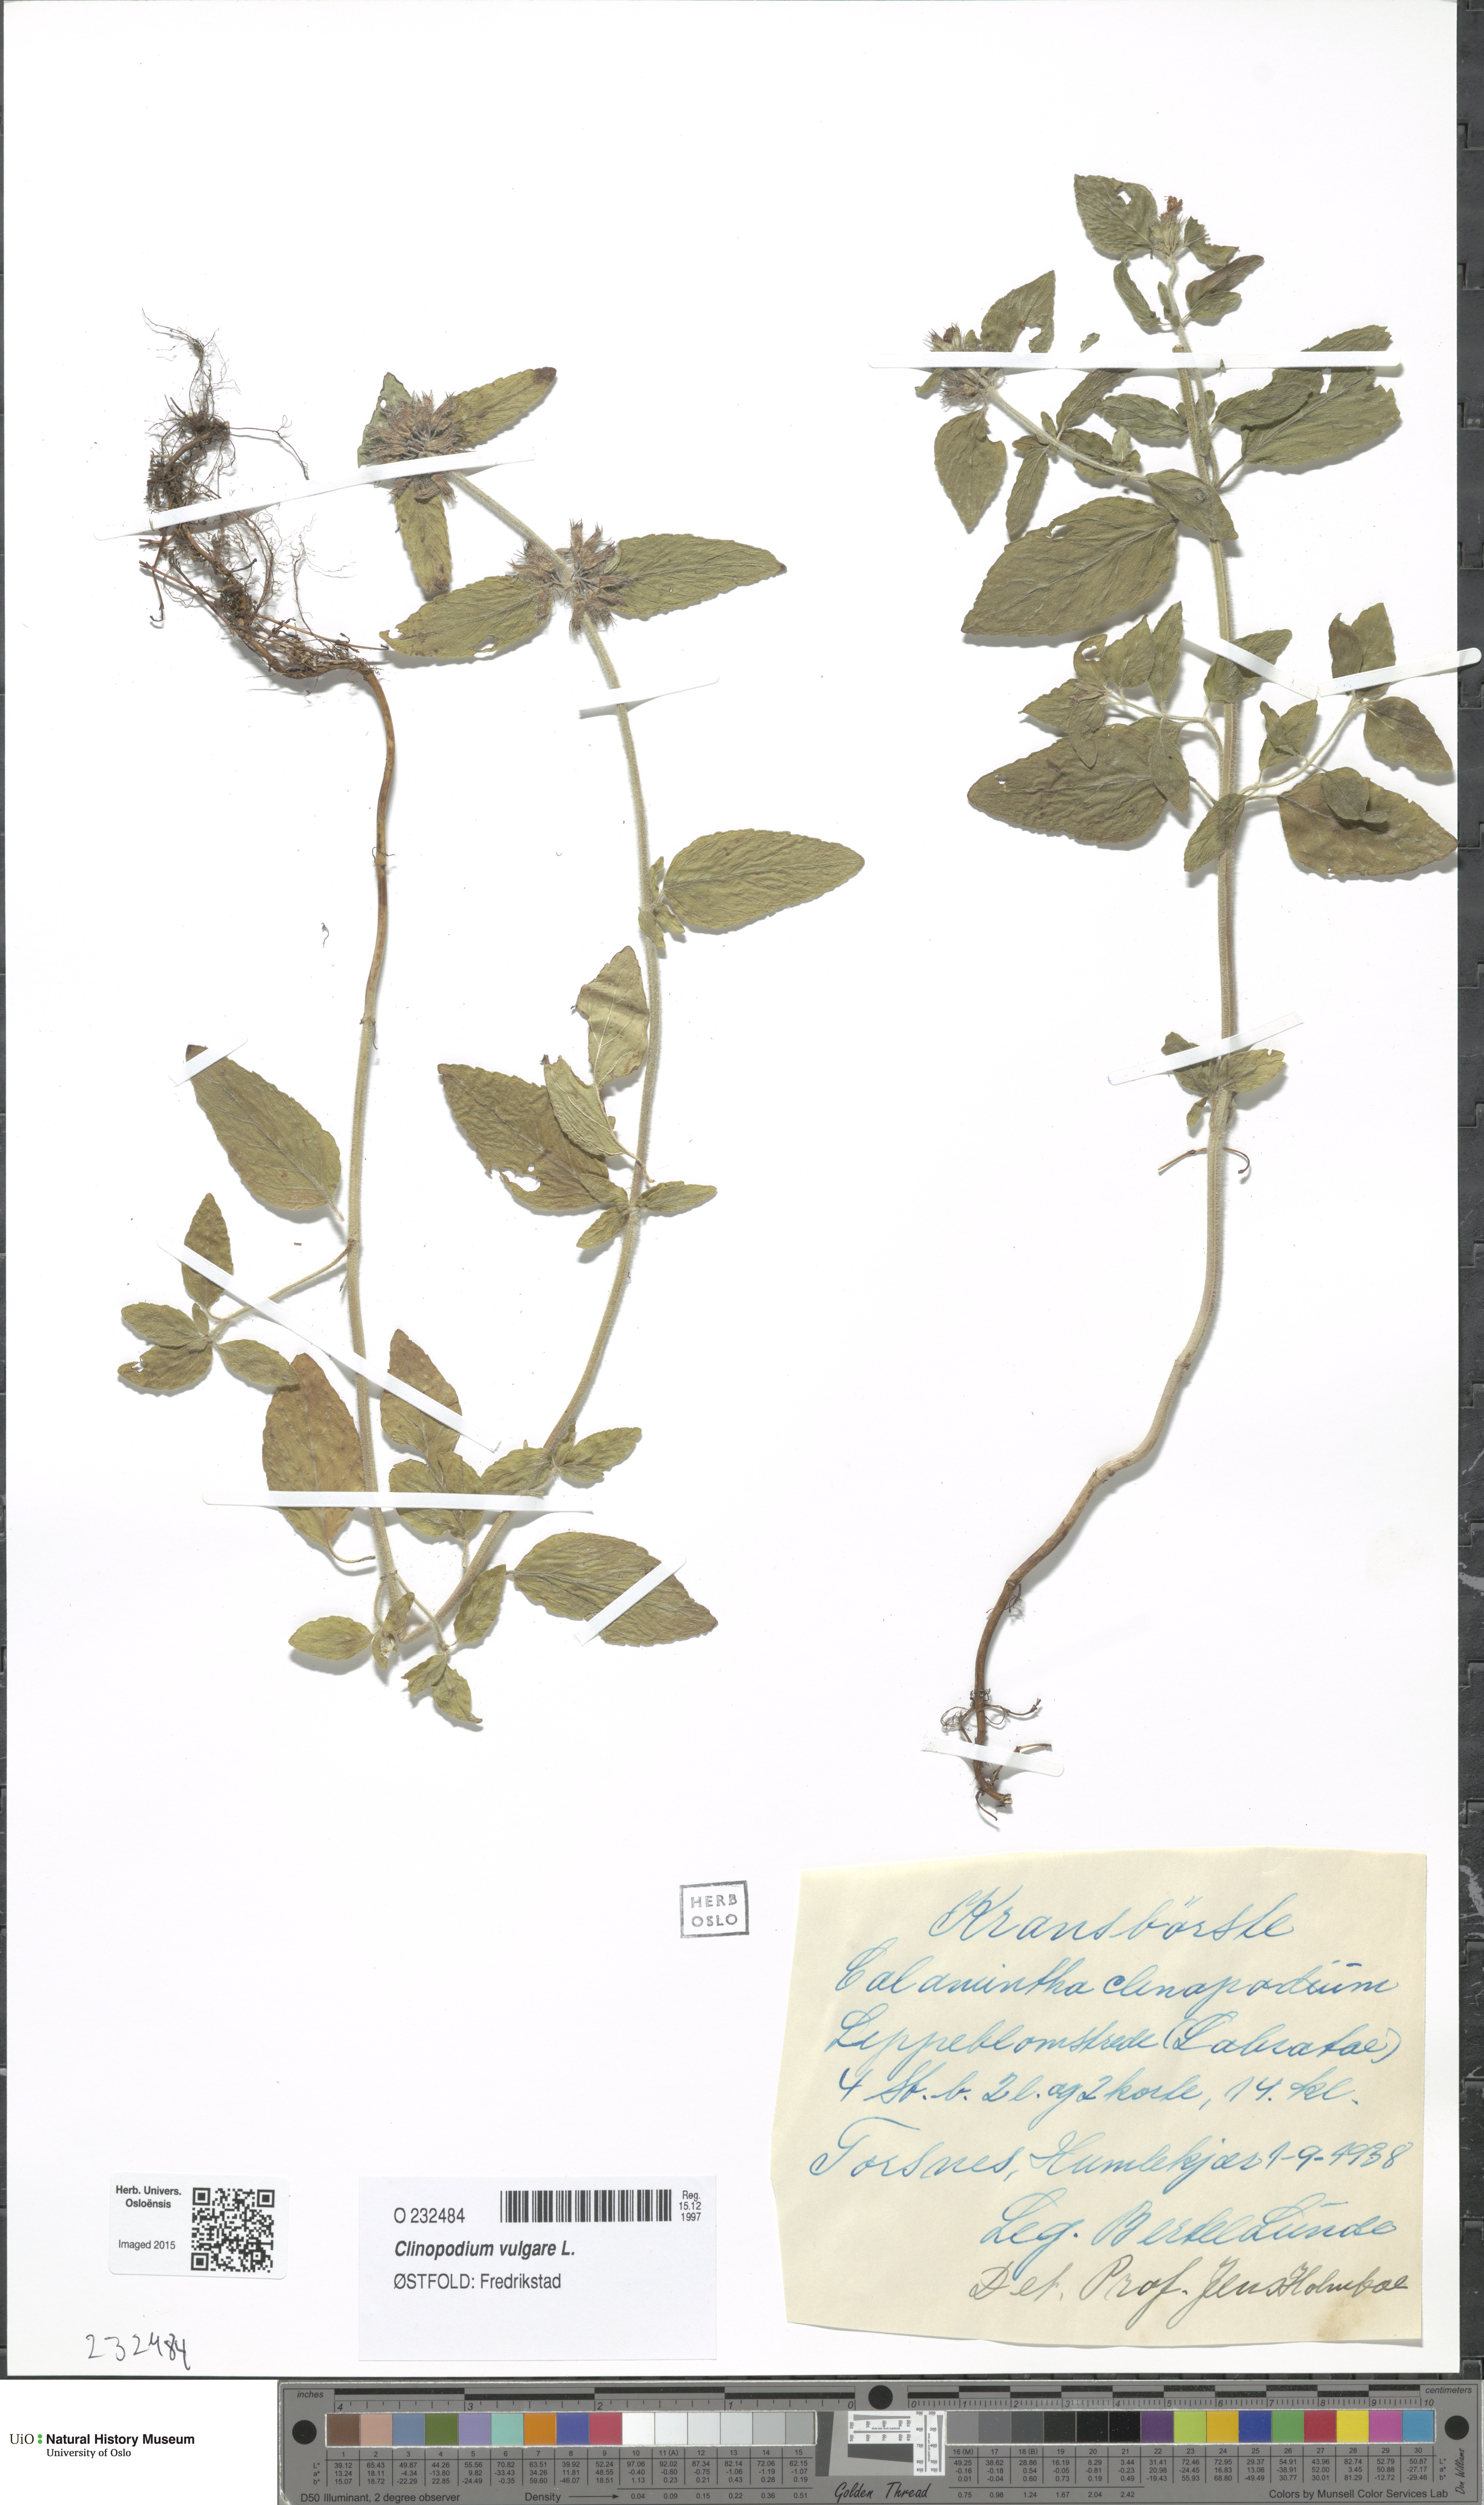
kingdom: Plantae
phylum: Tracheophyta
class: Magnoliopsida
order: Lamiales
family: Lamiaceae
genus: Clinopodium
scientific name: Clinopodium vulgare
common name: Wild basil
